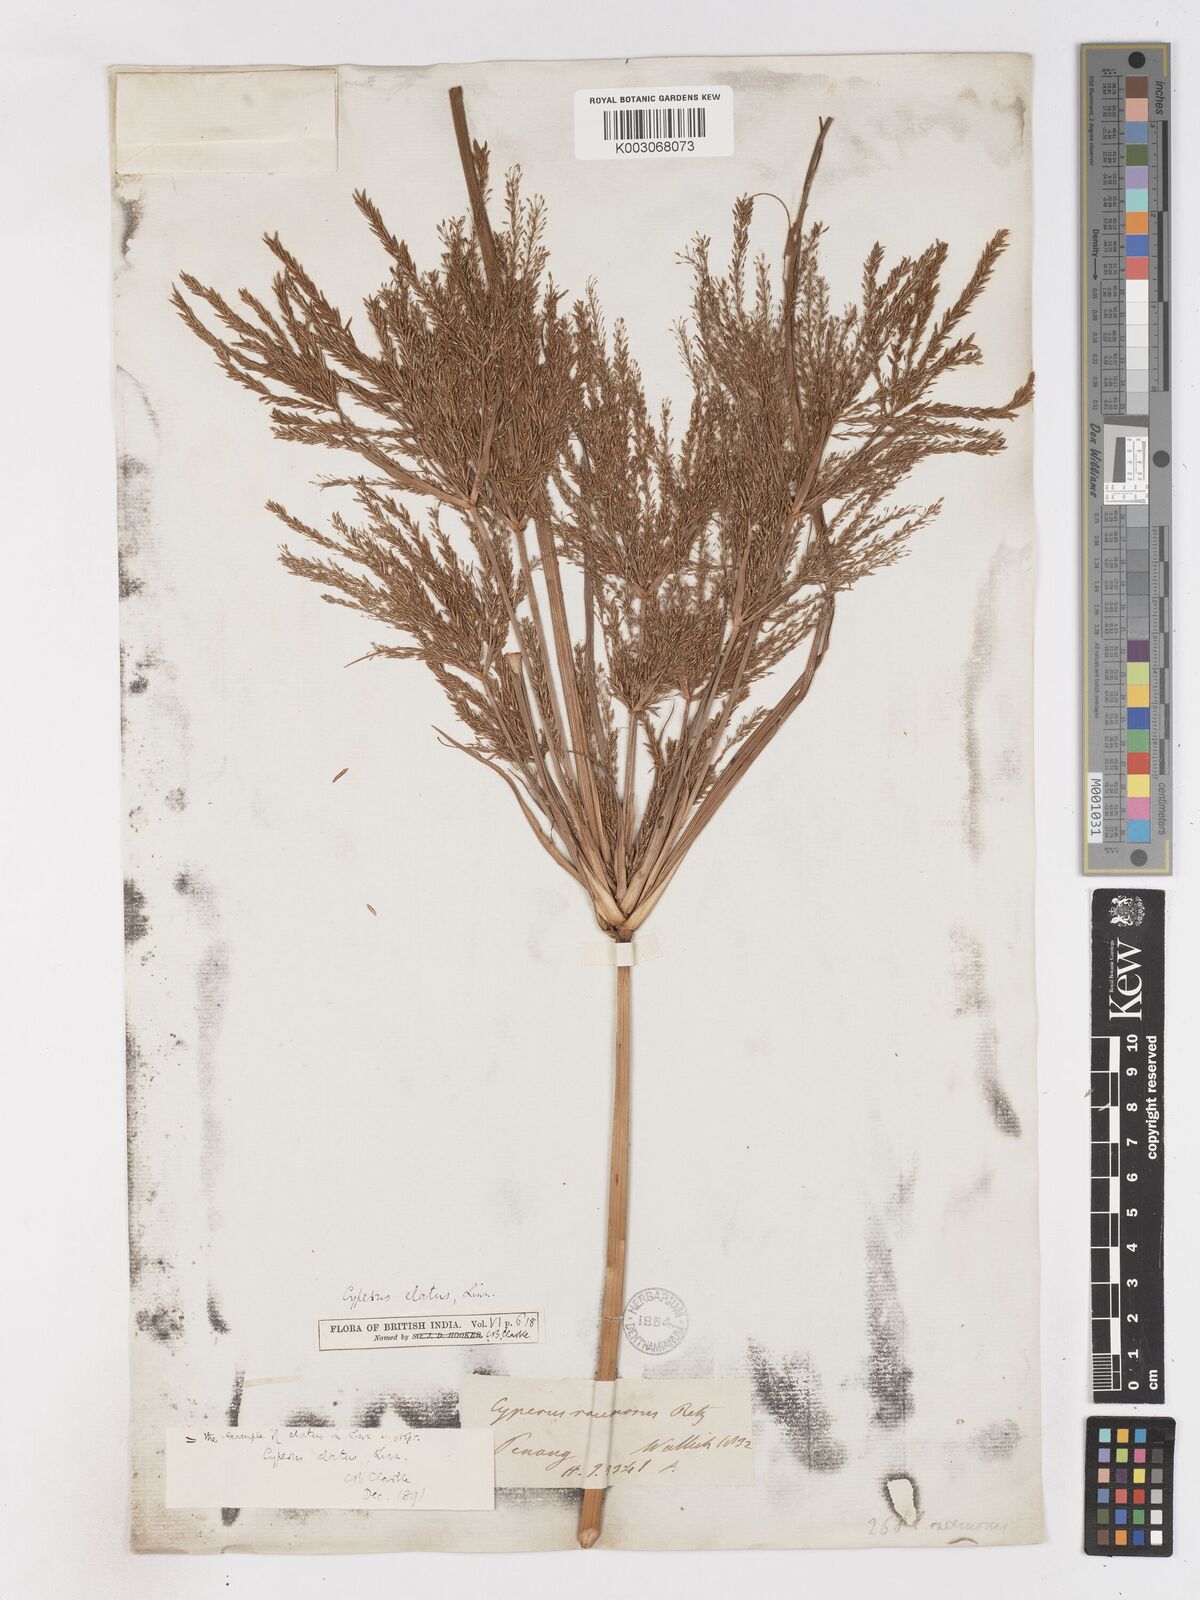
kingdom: Plantae
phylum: Tracheophyta
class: Liliopsida
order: Poales
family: Cyperaceae
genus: Cyperus
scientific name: Cyperus elatus
